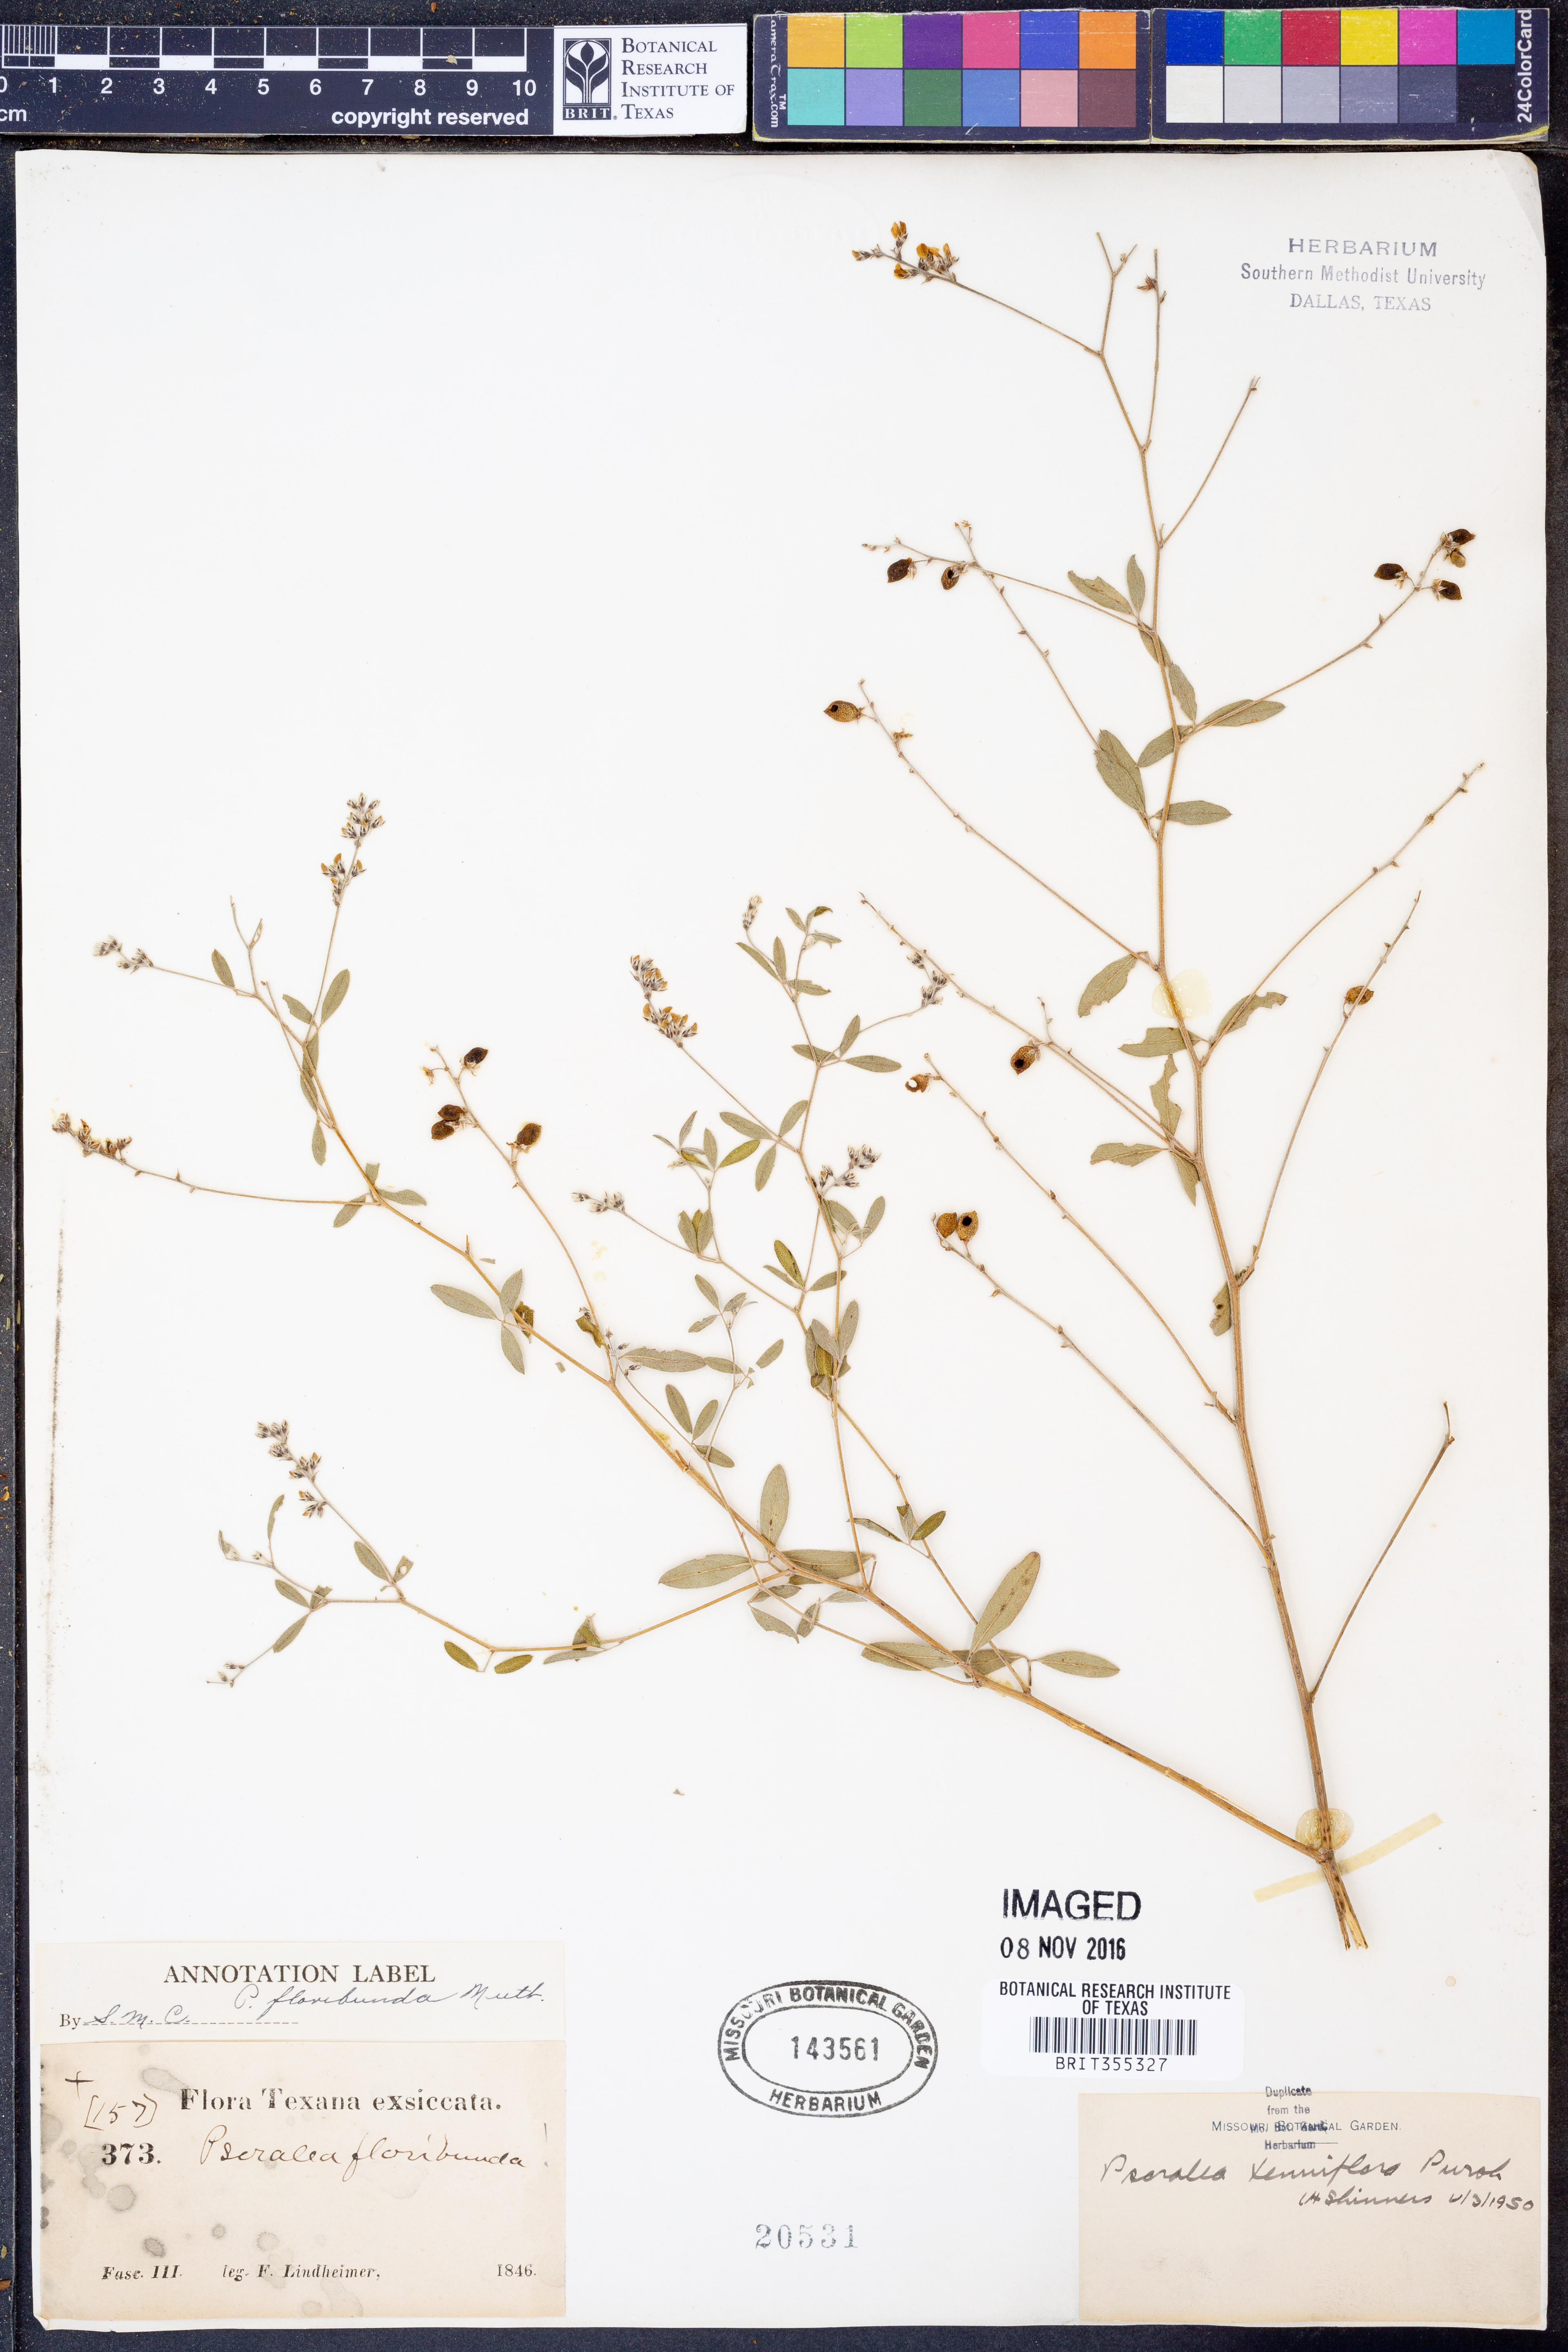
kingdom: Plantae
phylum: Tracheophyta
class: Magnoliopsida
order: Fabales
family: Fabaceae
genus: Pediomelum
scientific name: Pediomelum tenuiflorum
